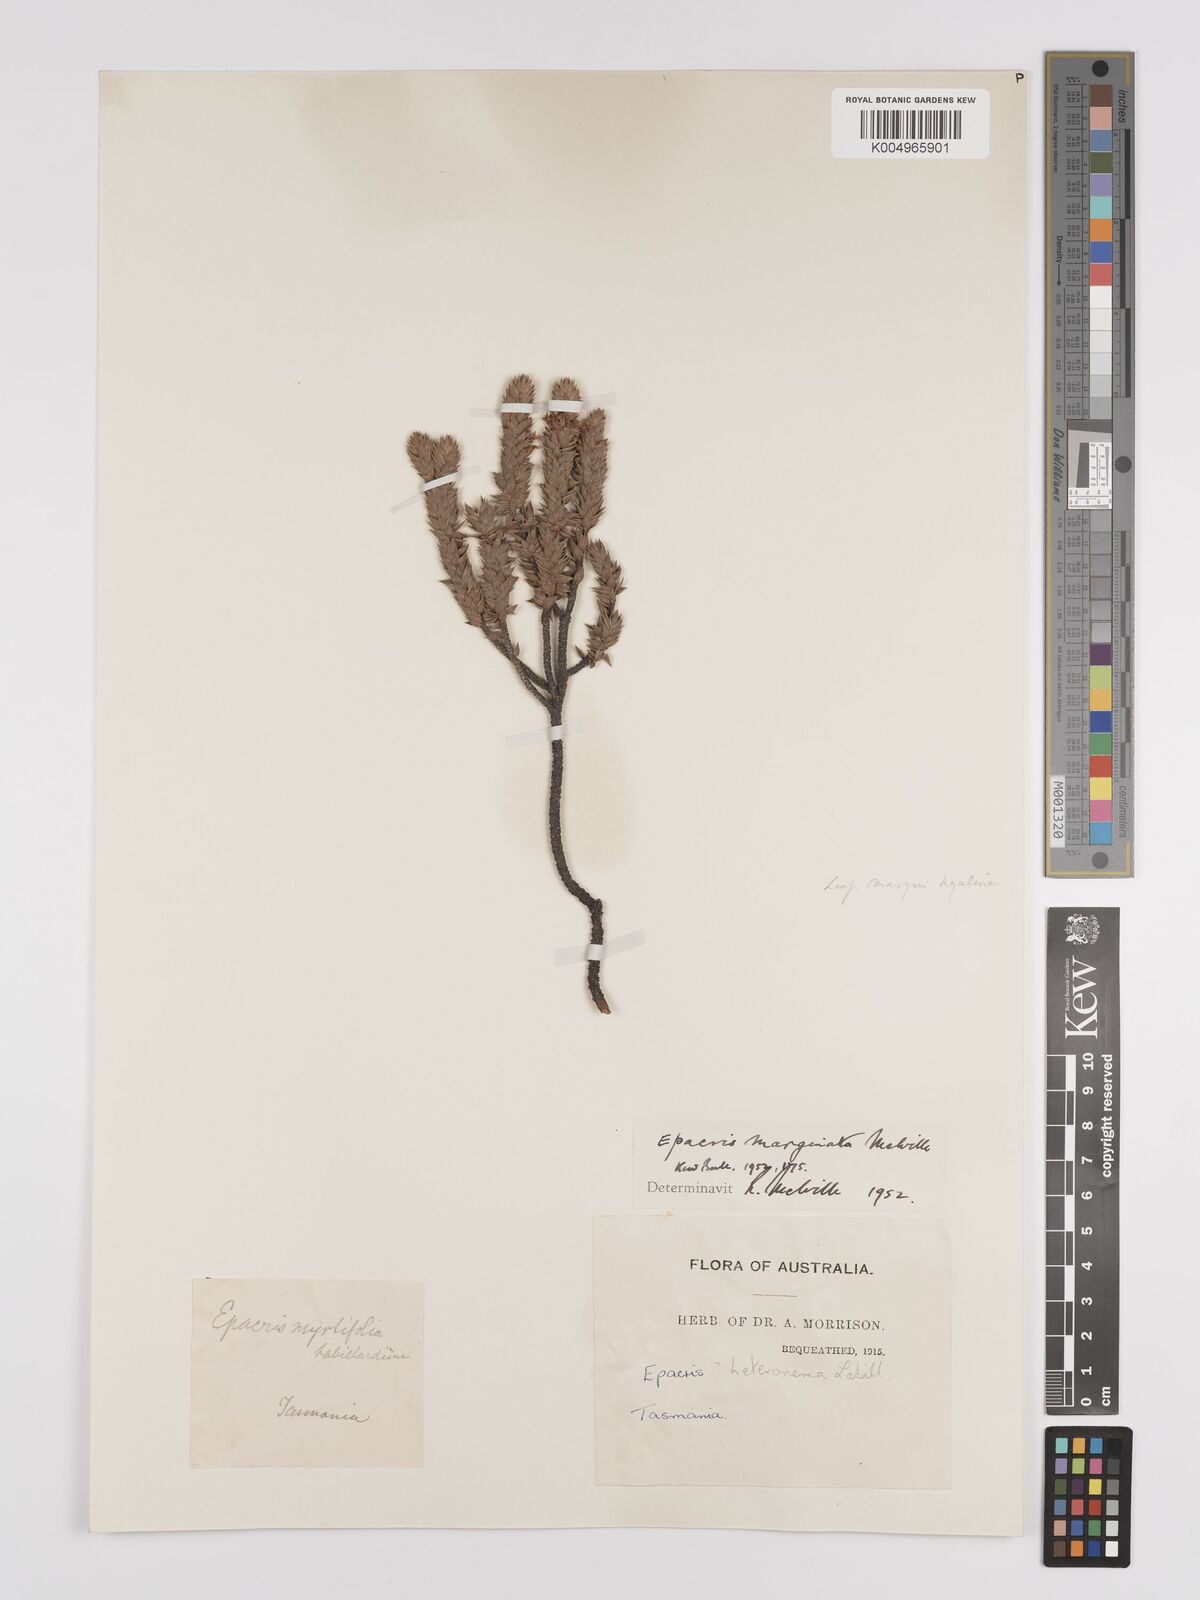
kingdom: Plantae
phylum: Tracheophyta
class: Magnoliopsida
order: Ericales
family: Ericaceae
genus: Epacris
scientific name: Epacris marginata
